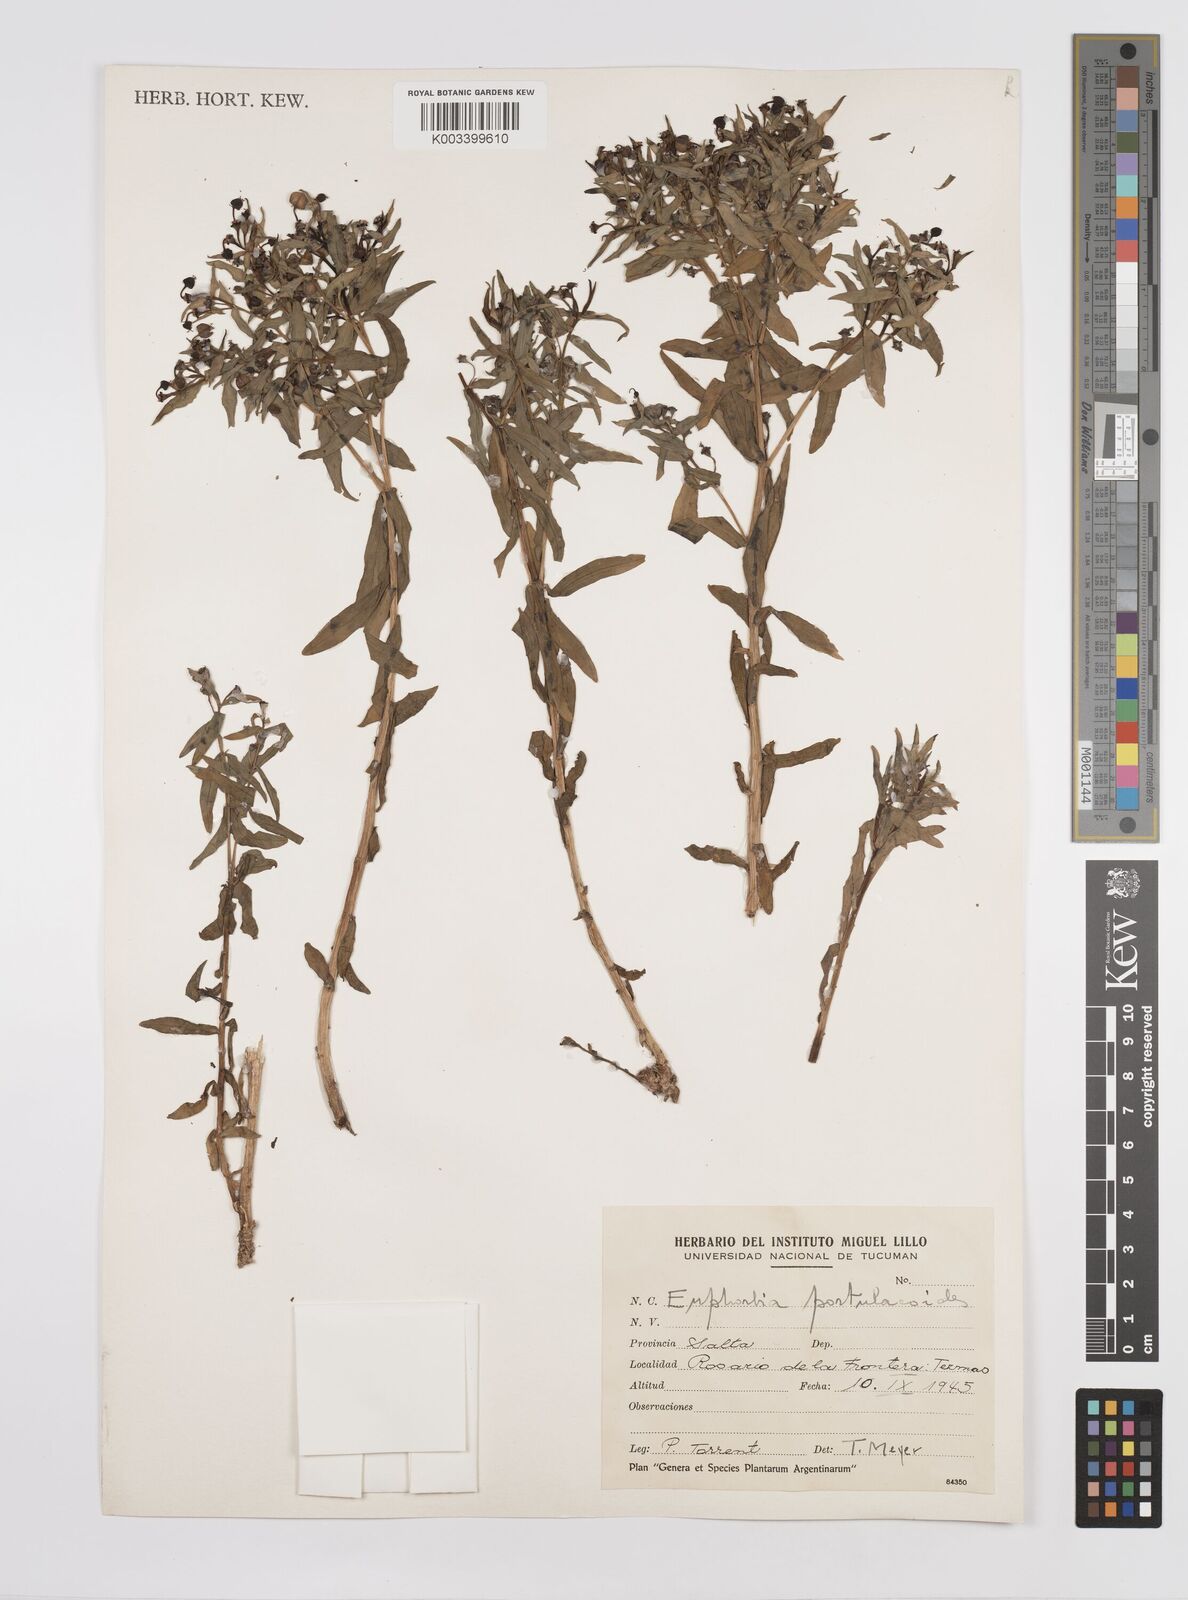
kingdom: Plantae
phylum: Tracheophyta
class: Magnoliopsida
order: Malpighiales
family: Euphorbiaceae
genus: Euphorbia
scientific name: Euphorbia portulacoides
